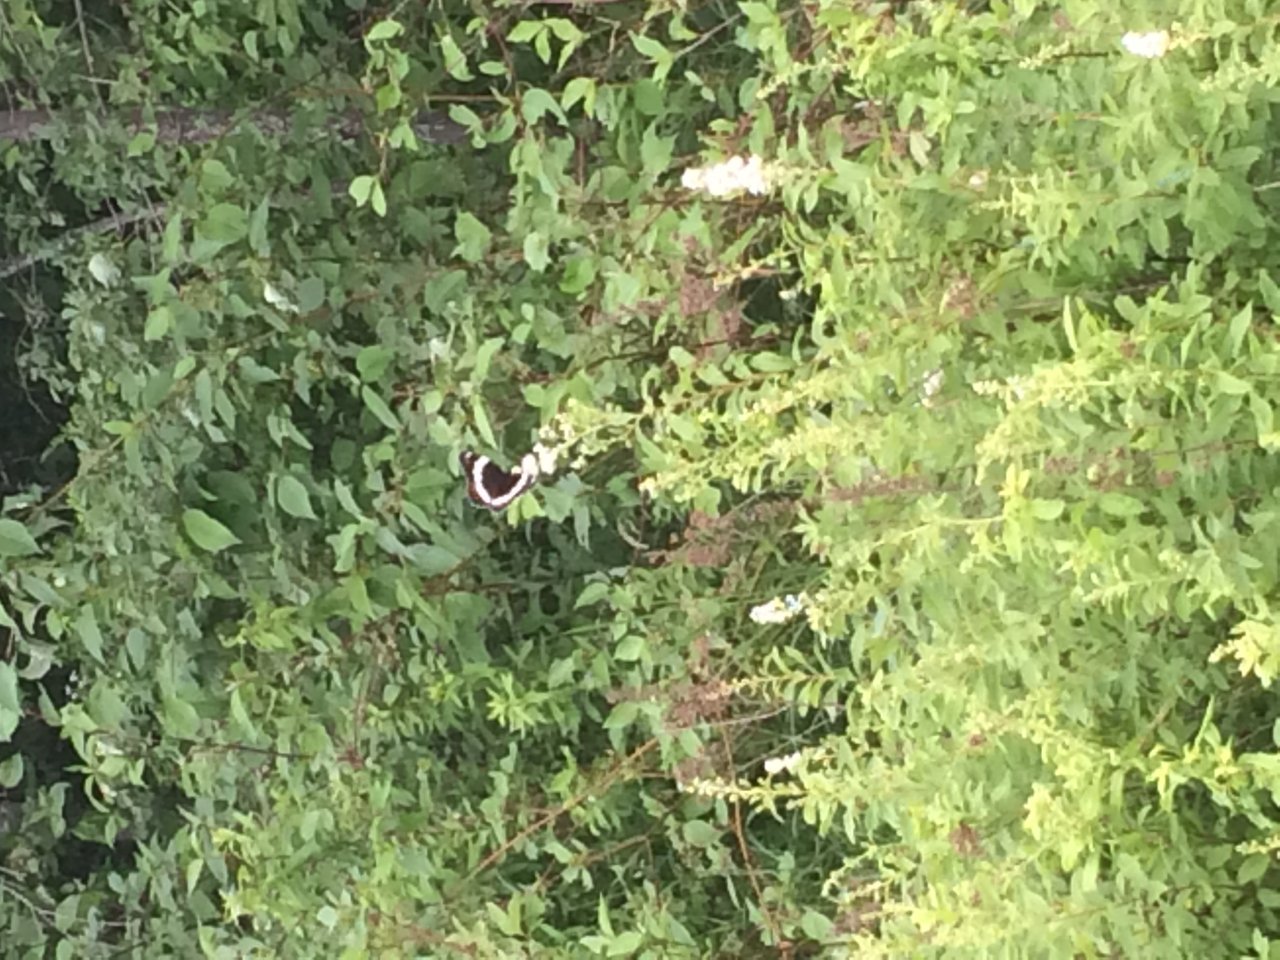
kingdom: Animalia
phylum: Arthropoda
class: Insecta
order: Lepidoptera
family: Nymphalidae
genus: Limenitis
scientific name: Limenitis arthemis
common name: Red-spotted Admiral
